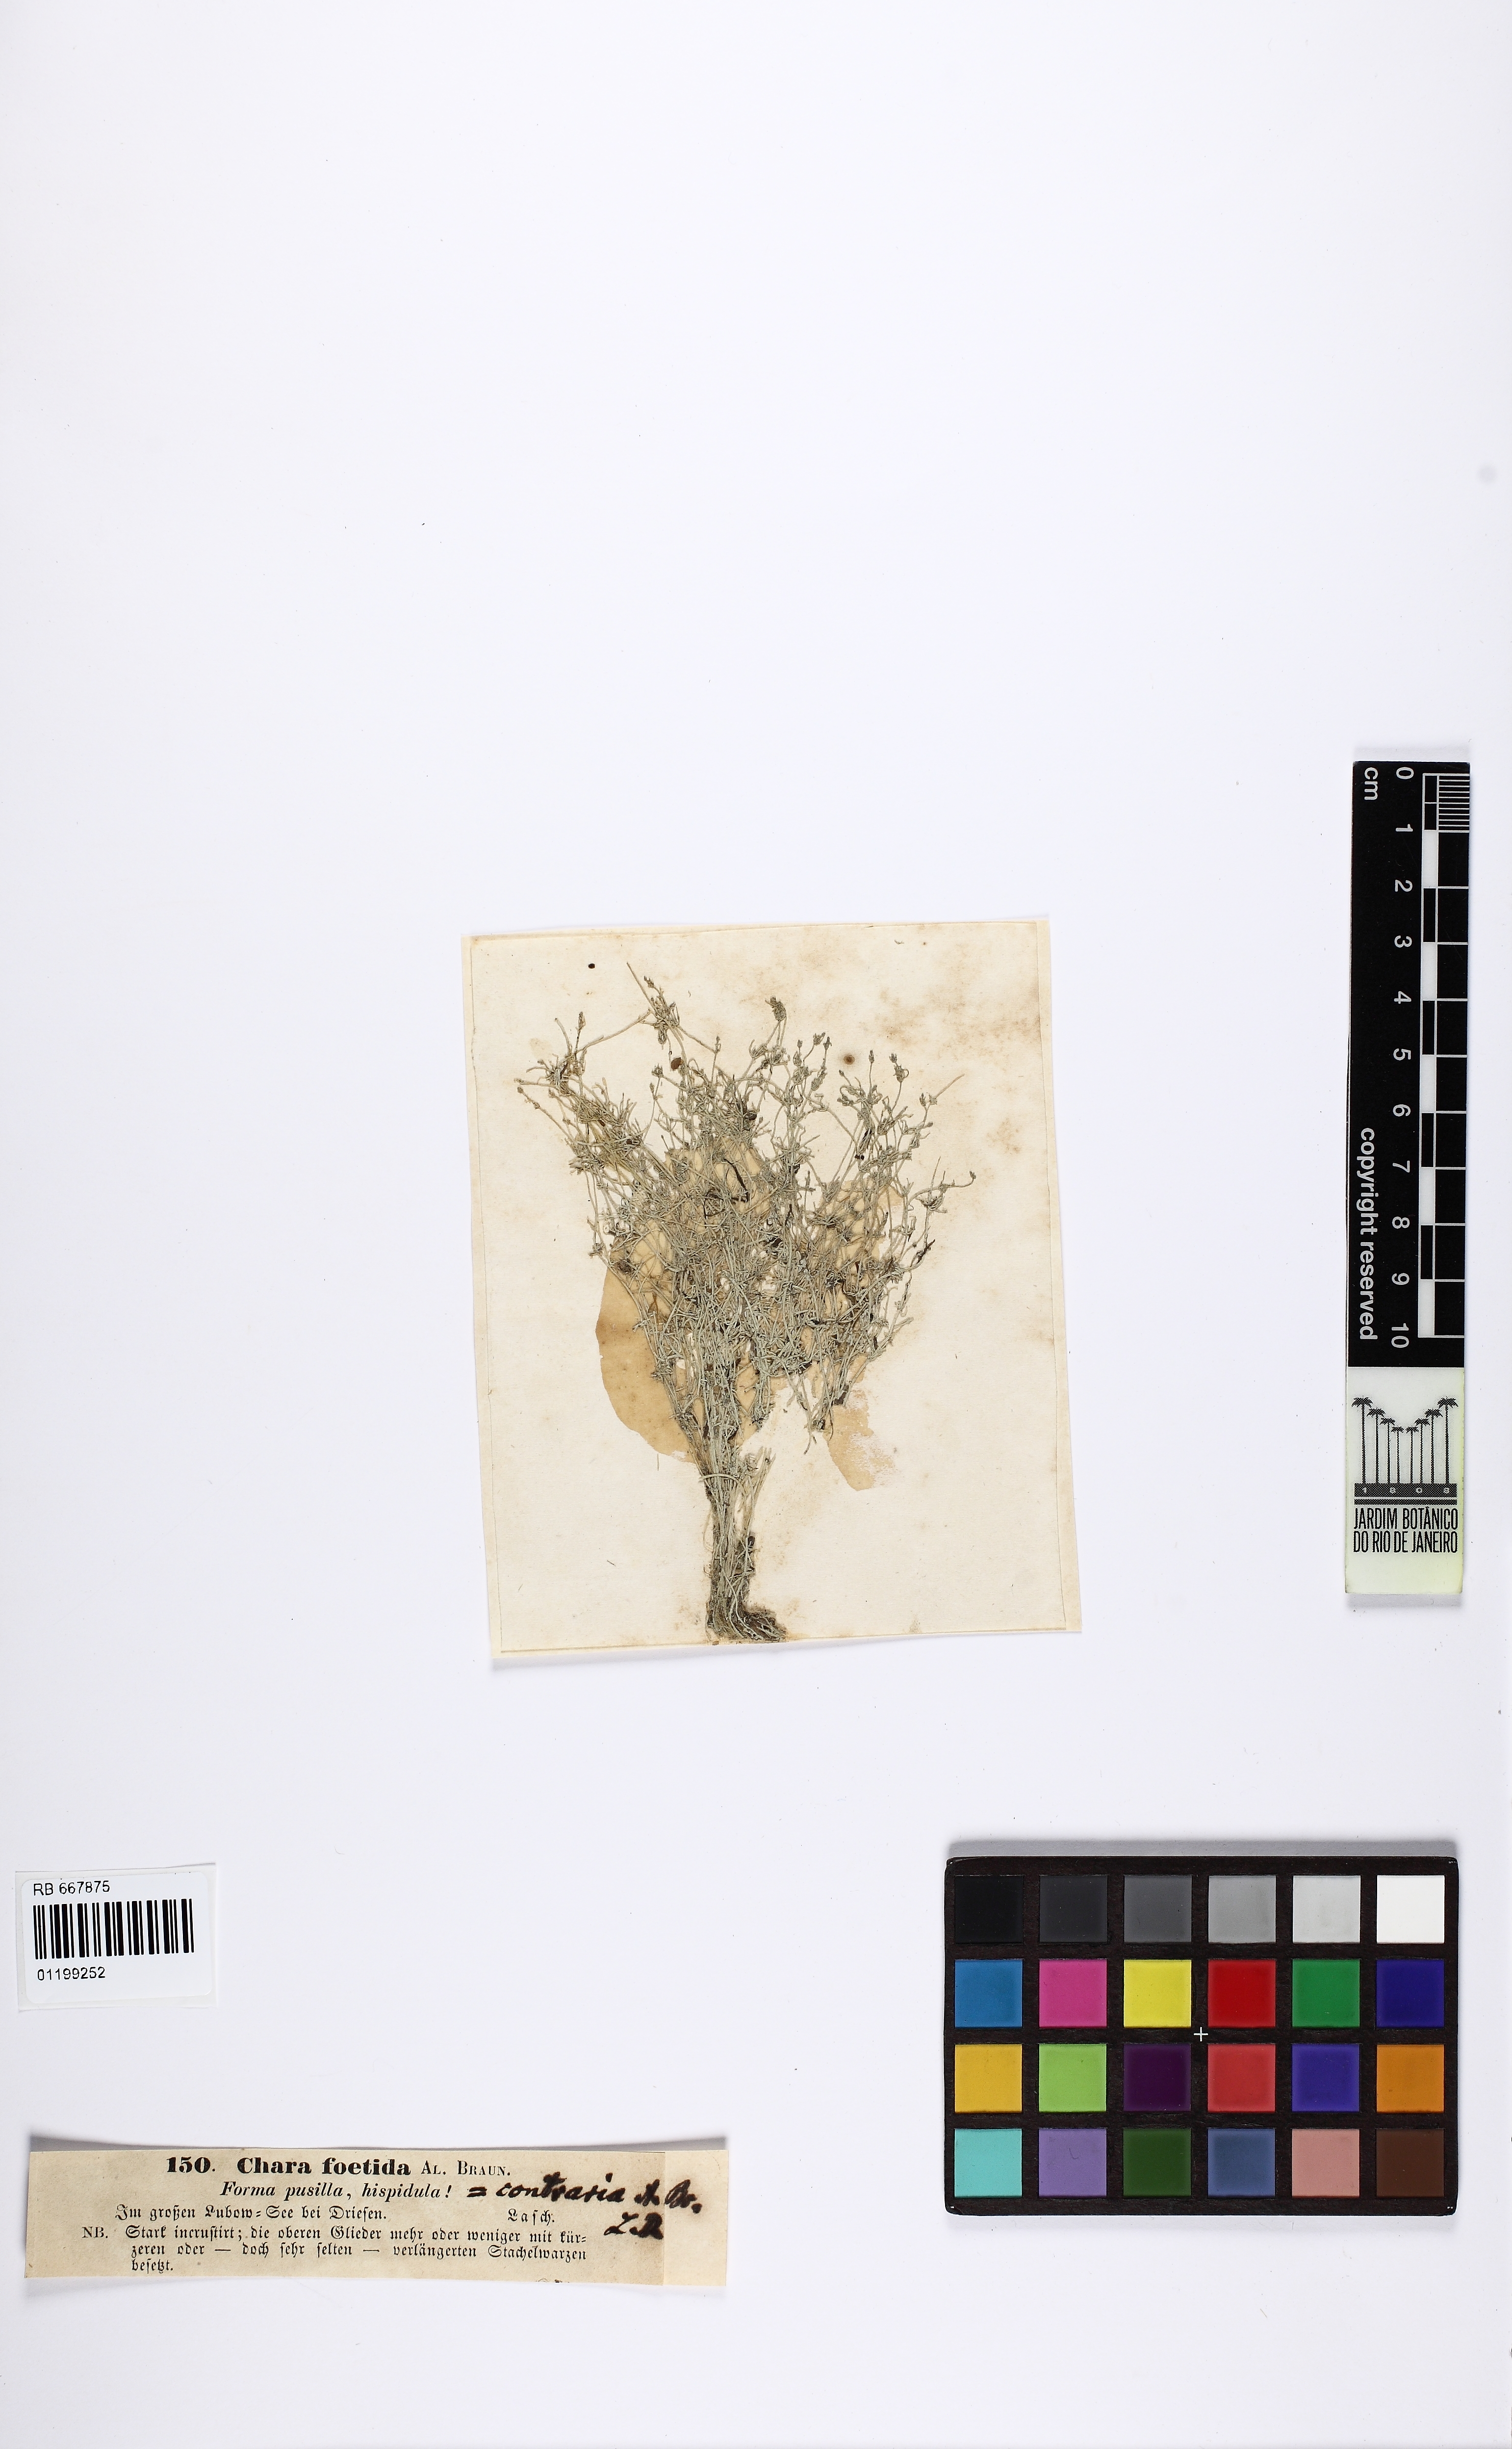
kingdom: Plantae
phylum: Charophyta
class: Charophyceae
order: Charales
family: Characeae
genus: Chara
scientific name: Chara vulgaris
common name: Common stonewort
